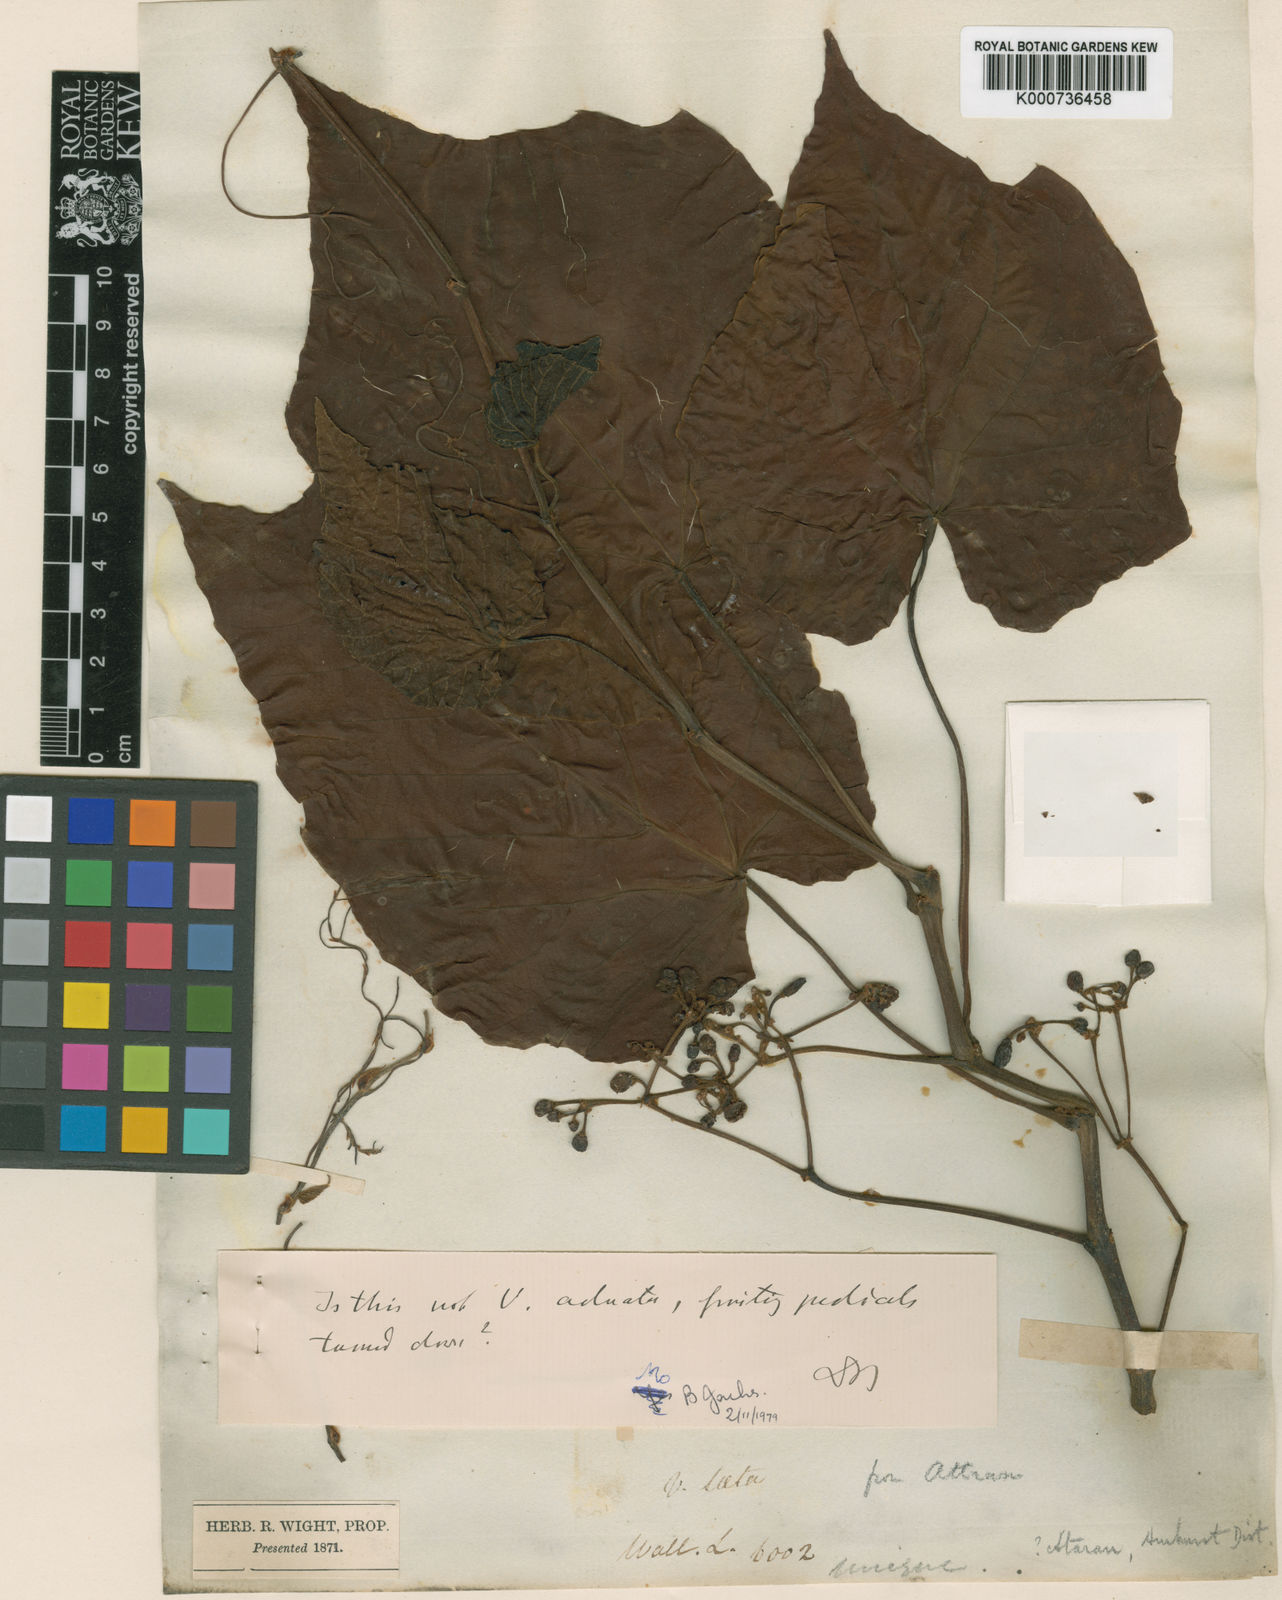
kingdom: Plantae
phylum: Tracheophyta
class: Magnoliopsida
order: Vitales
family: Vitaceae
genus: Cissus
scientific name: Cissus
